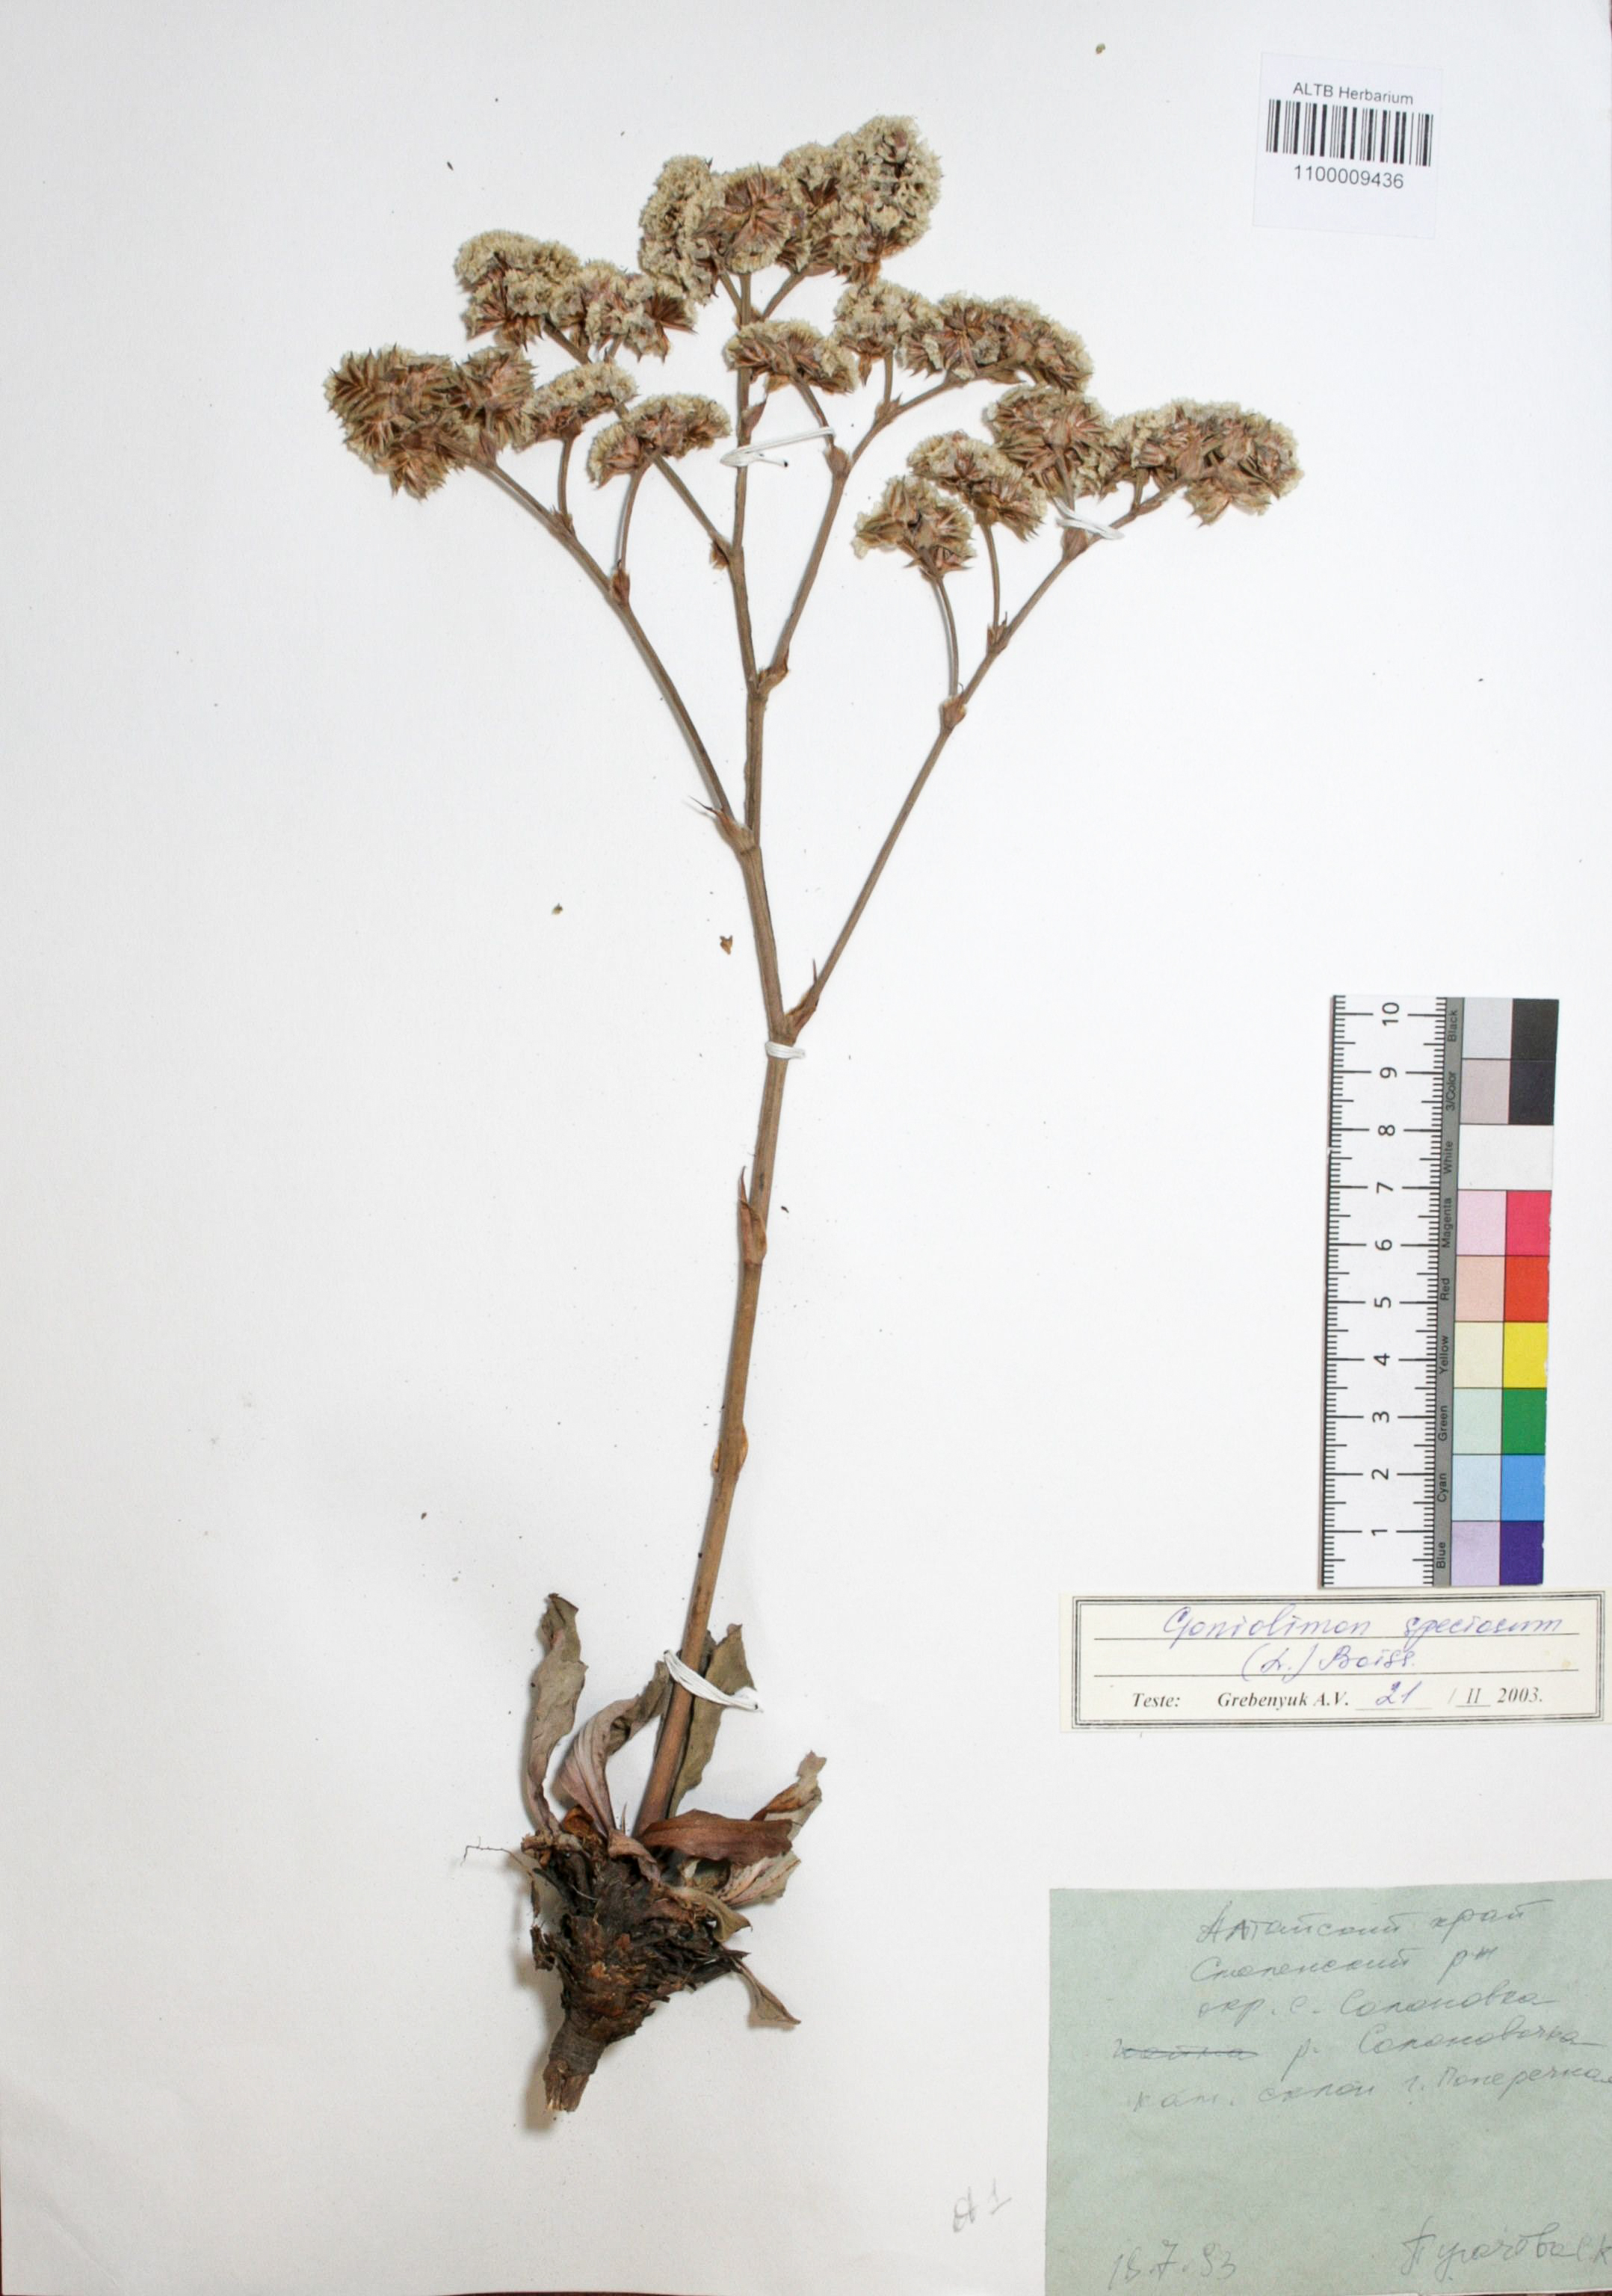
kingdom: Plantae
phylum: Tracheophyta
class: Magnoliopsida
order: Caryophyllales
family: Plumbaginaceae
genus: Goniolimon
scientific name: Goniolimon speciosum
